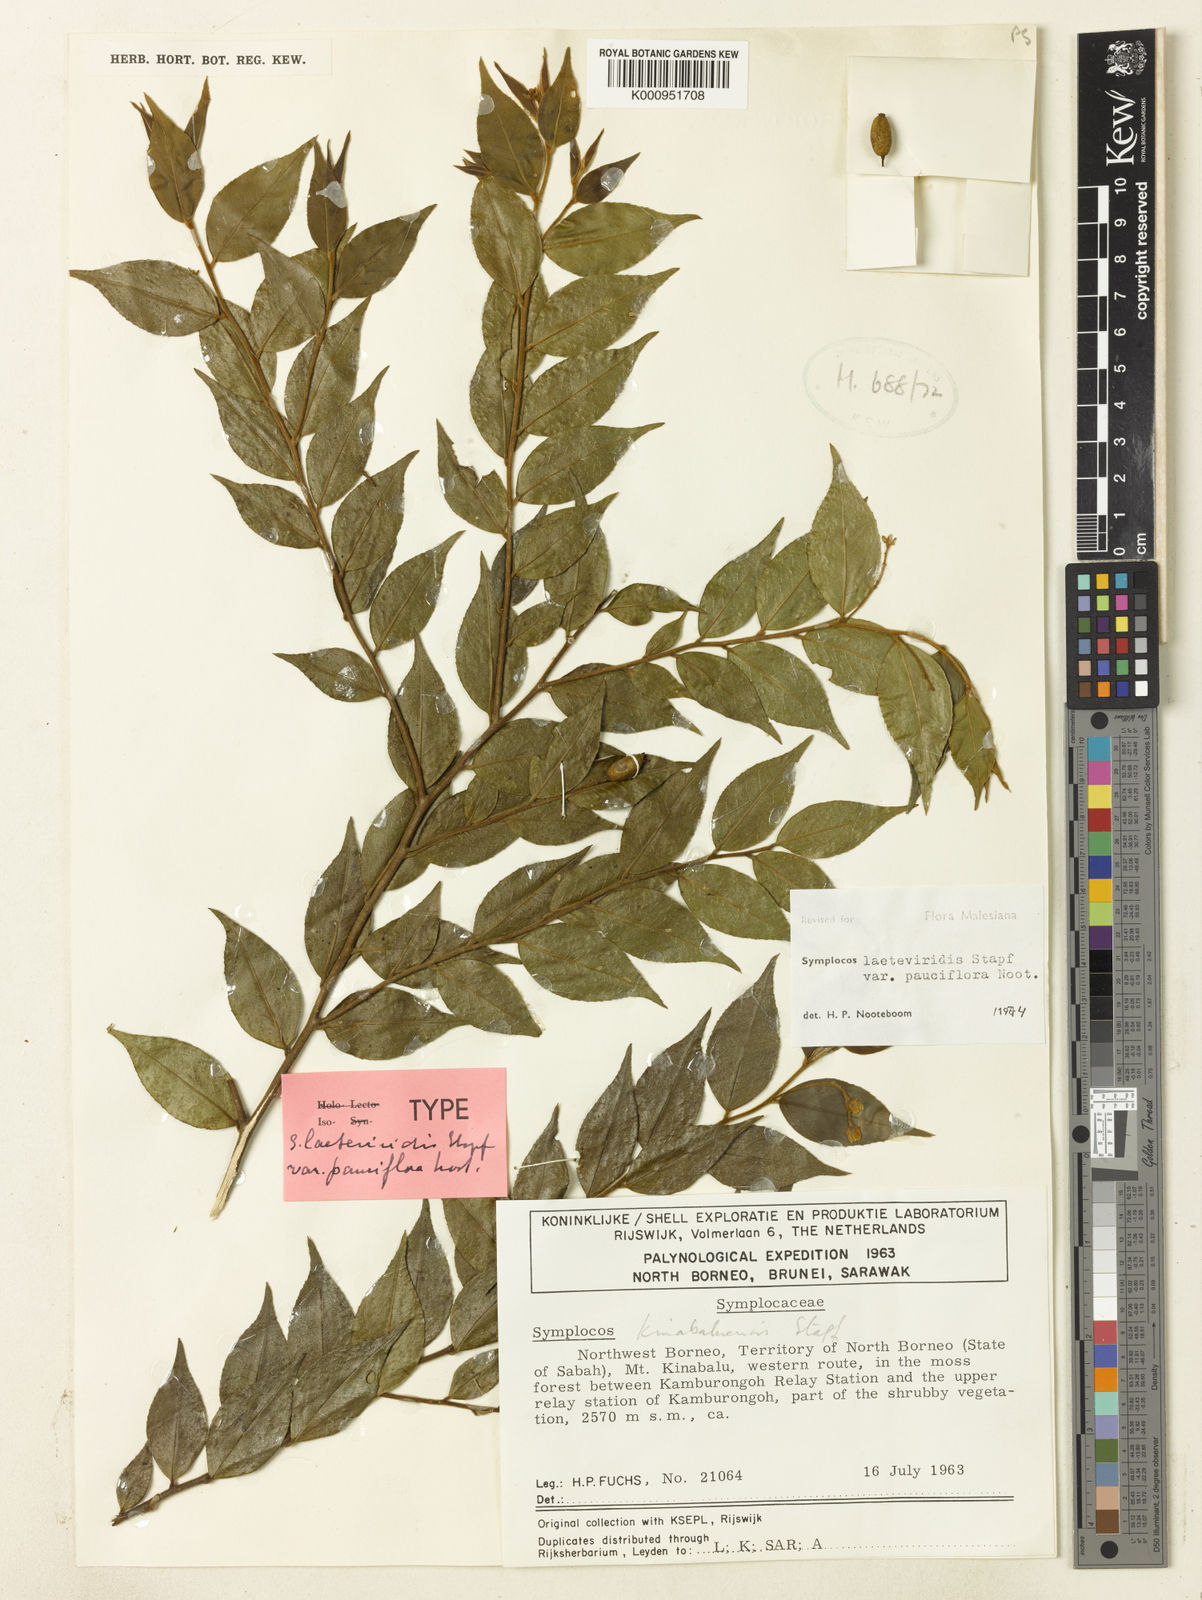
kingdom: Plantae
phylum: Tracheophyta
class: Magnoliopsida
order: Ericales
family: Symplocaceae
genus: Symplocos
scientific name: Symplocos laeteviridis
